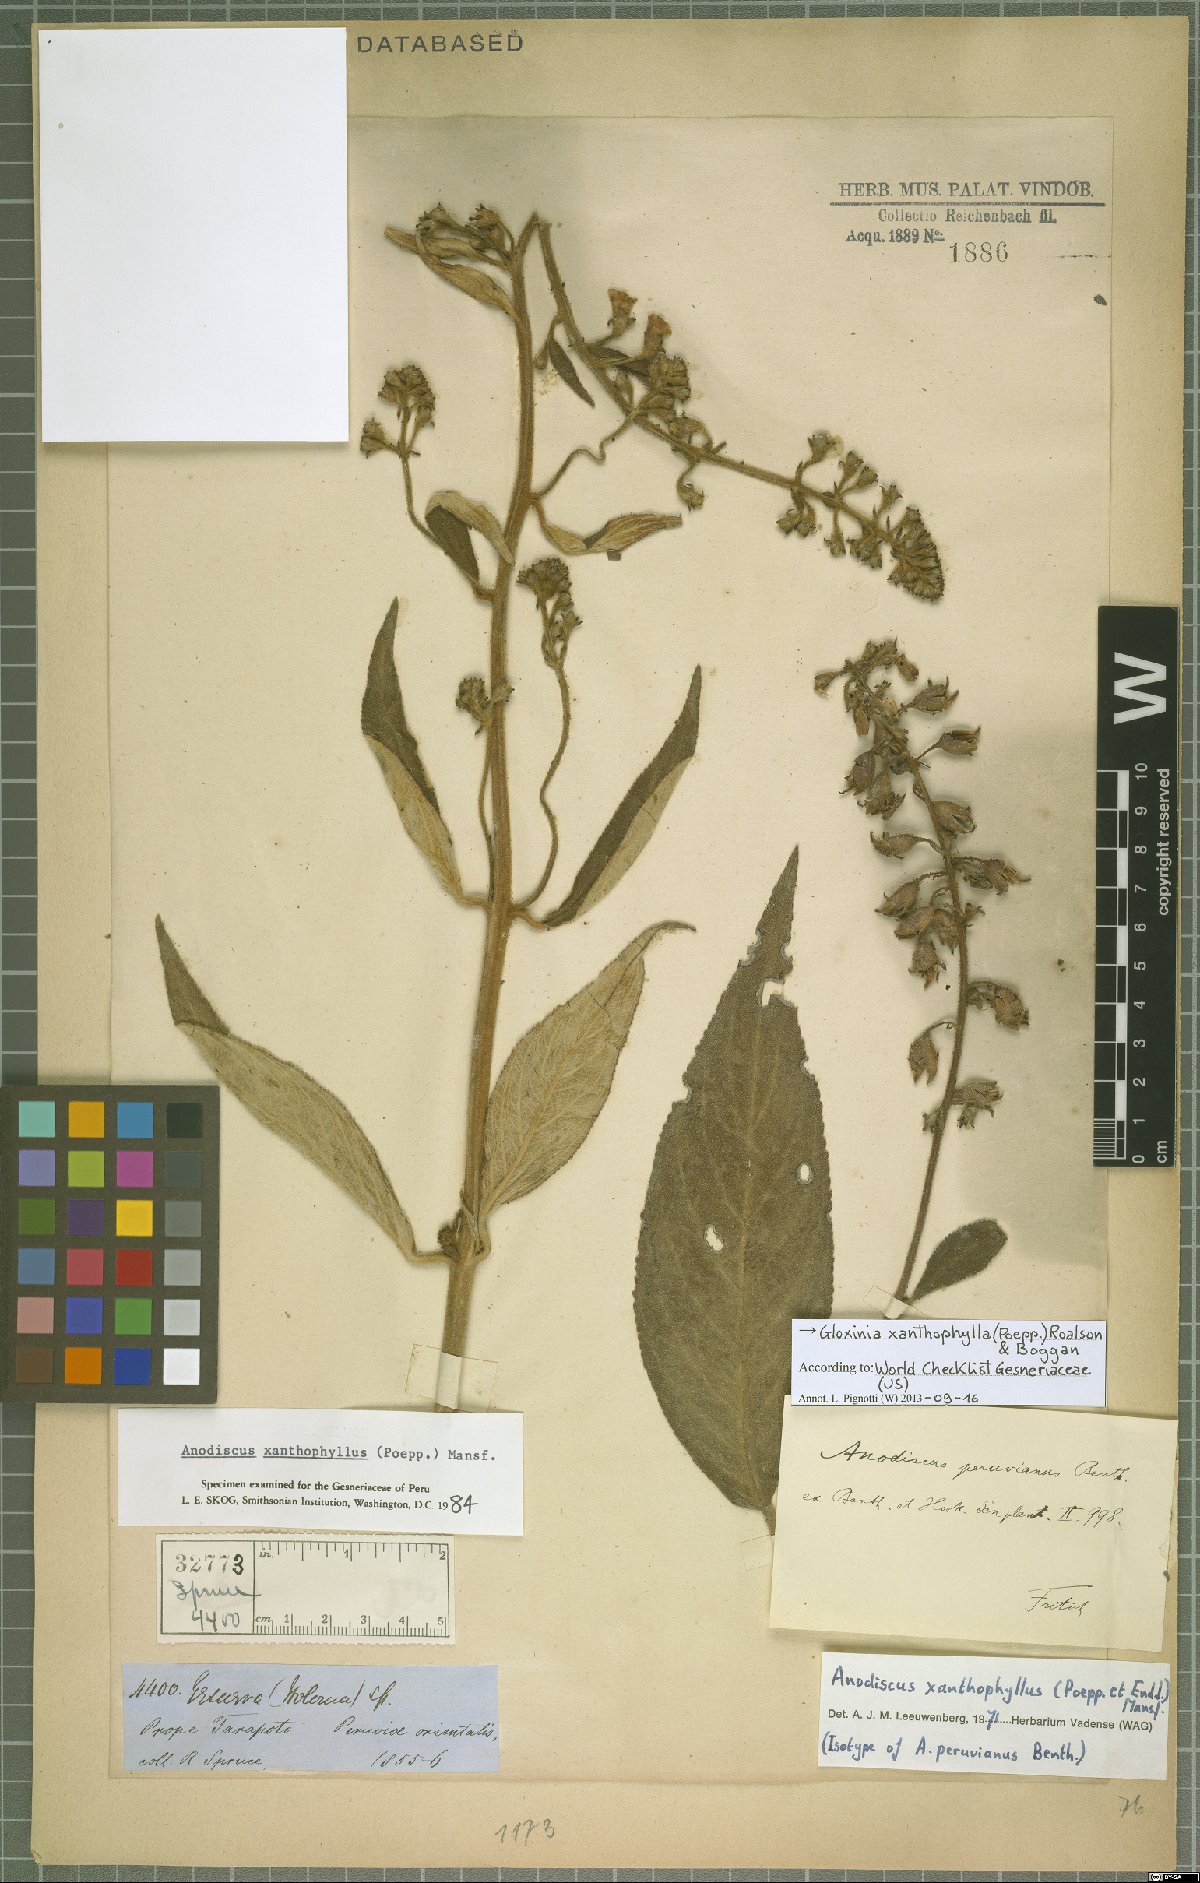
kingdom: Plantae
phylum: Tracheophyta
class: Magnoliopsida
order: Lamiales
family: Gesneriaceae
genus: Gloxinia
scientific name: Gloxinia xanthophylla
